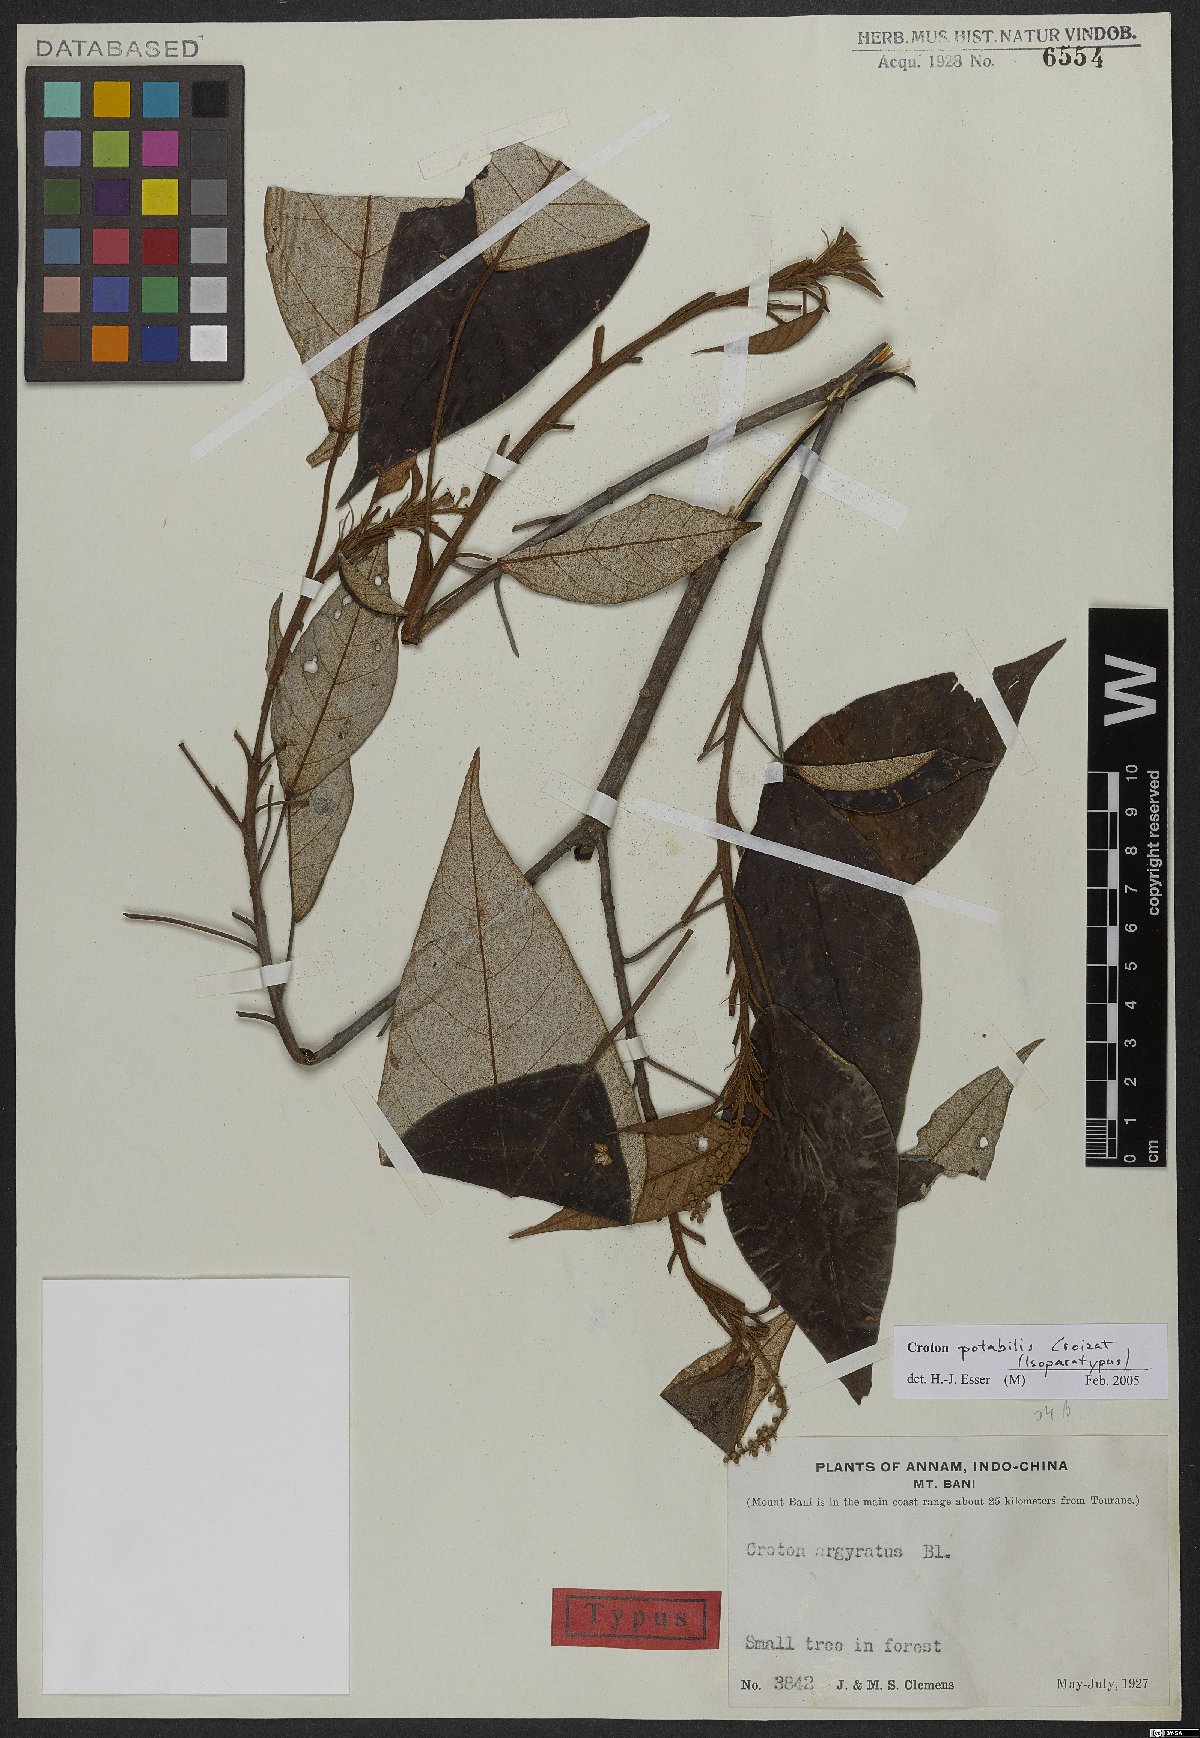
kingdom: Plantae
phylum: Tracheophyta
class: Magnoliopsida
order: Malpighiales
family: Euphorbiaceae
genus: Croton
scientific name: Croton potabilis
